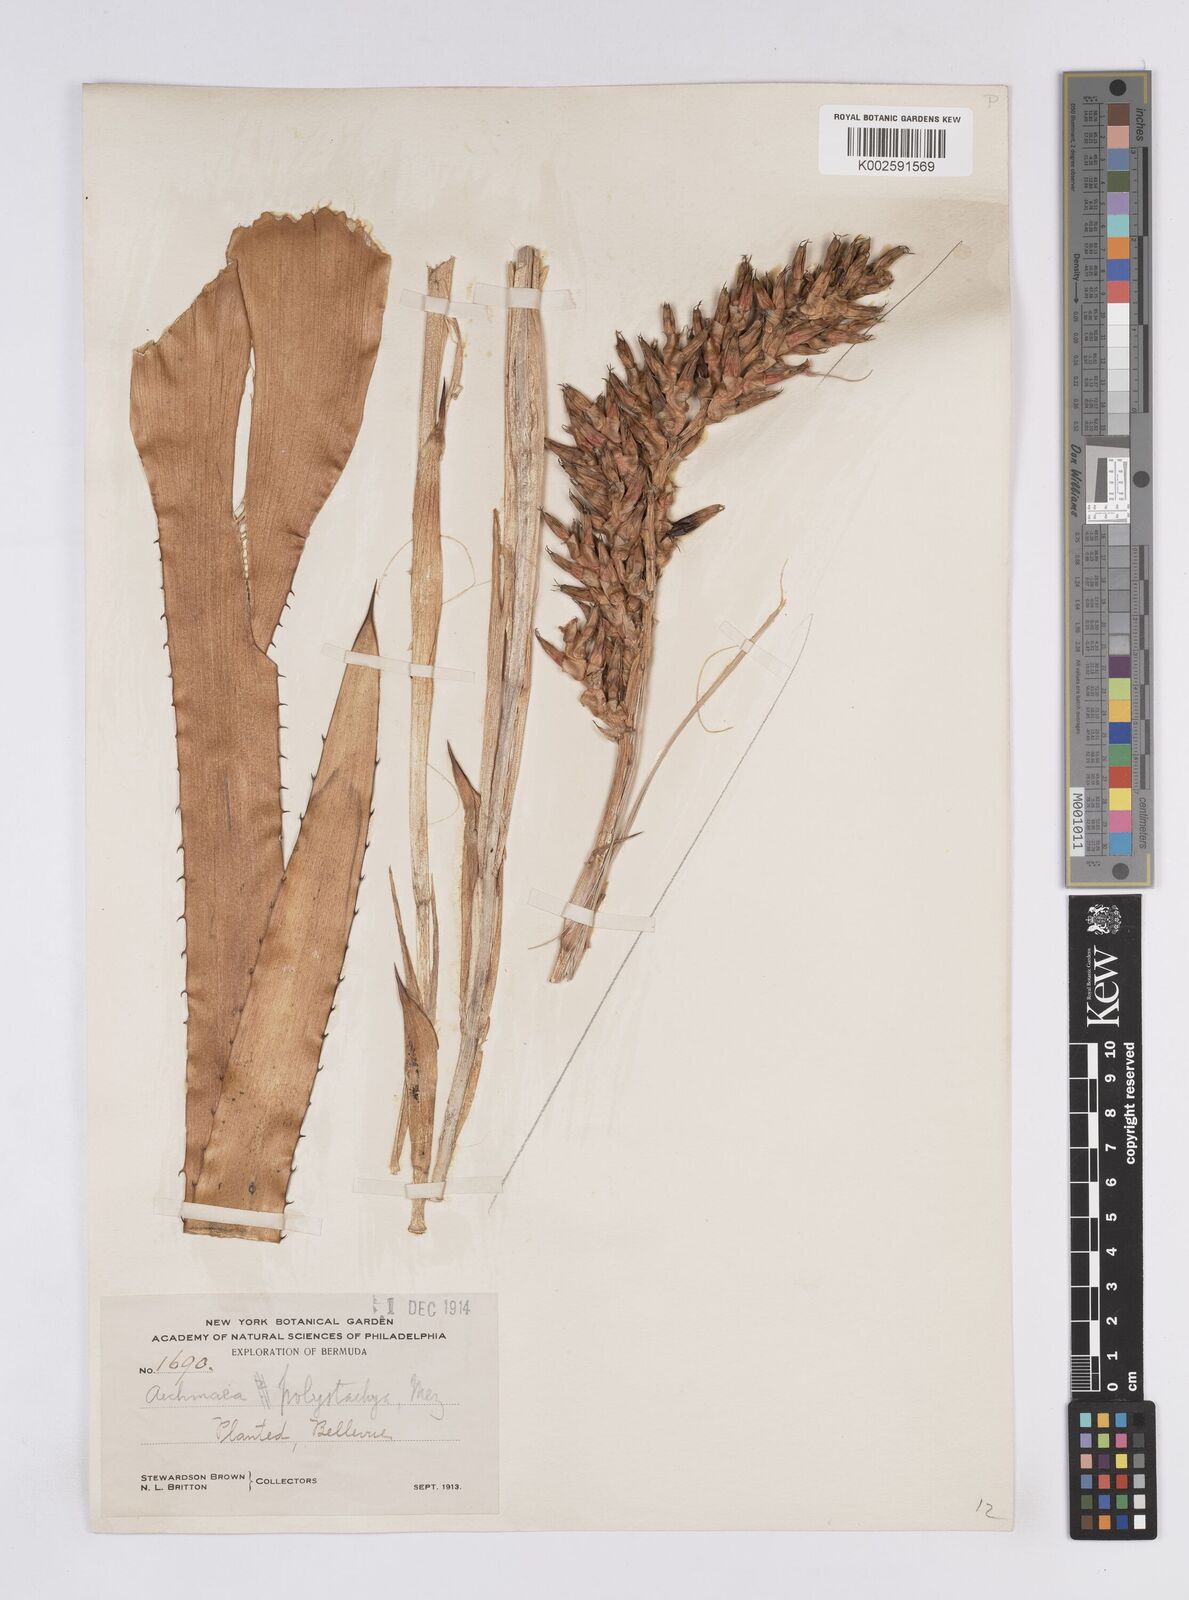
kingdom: Plantae
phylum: Tracheophyta
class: Liliopsida
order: Poales
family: Bromeliaceae
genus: Aechmea
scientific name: Aechmea distichantha
